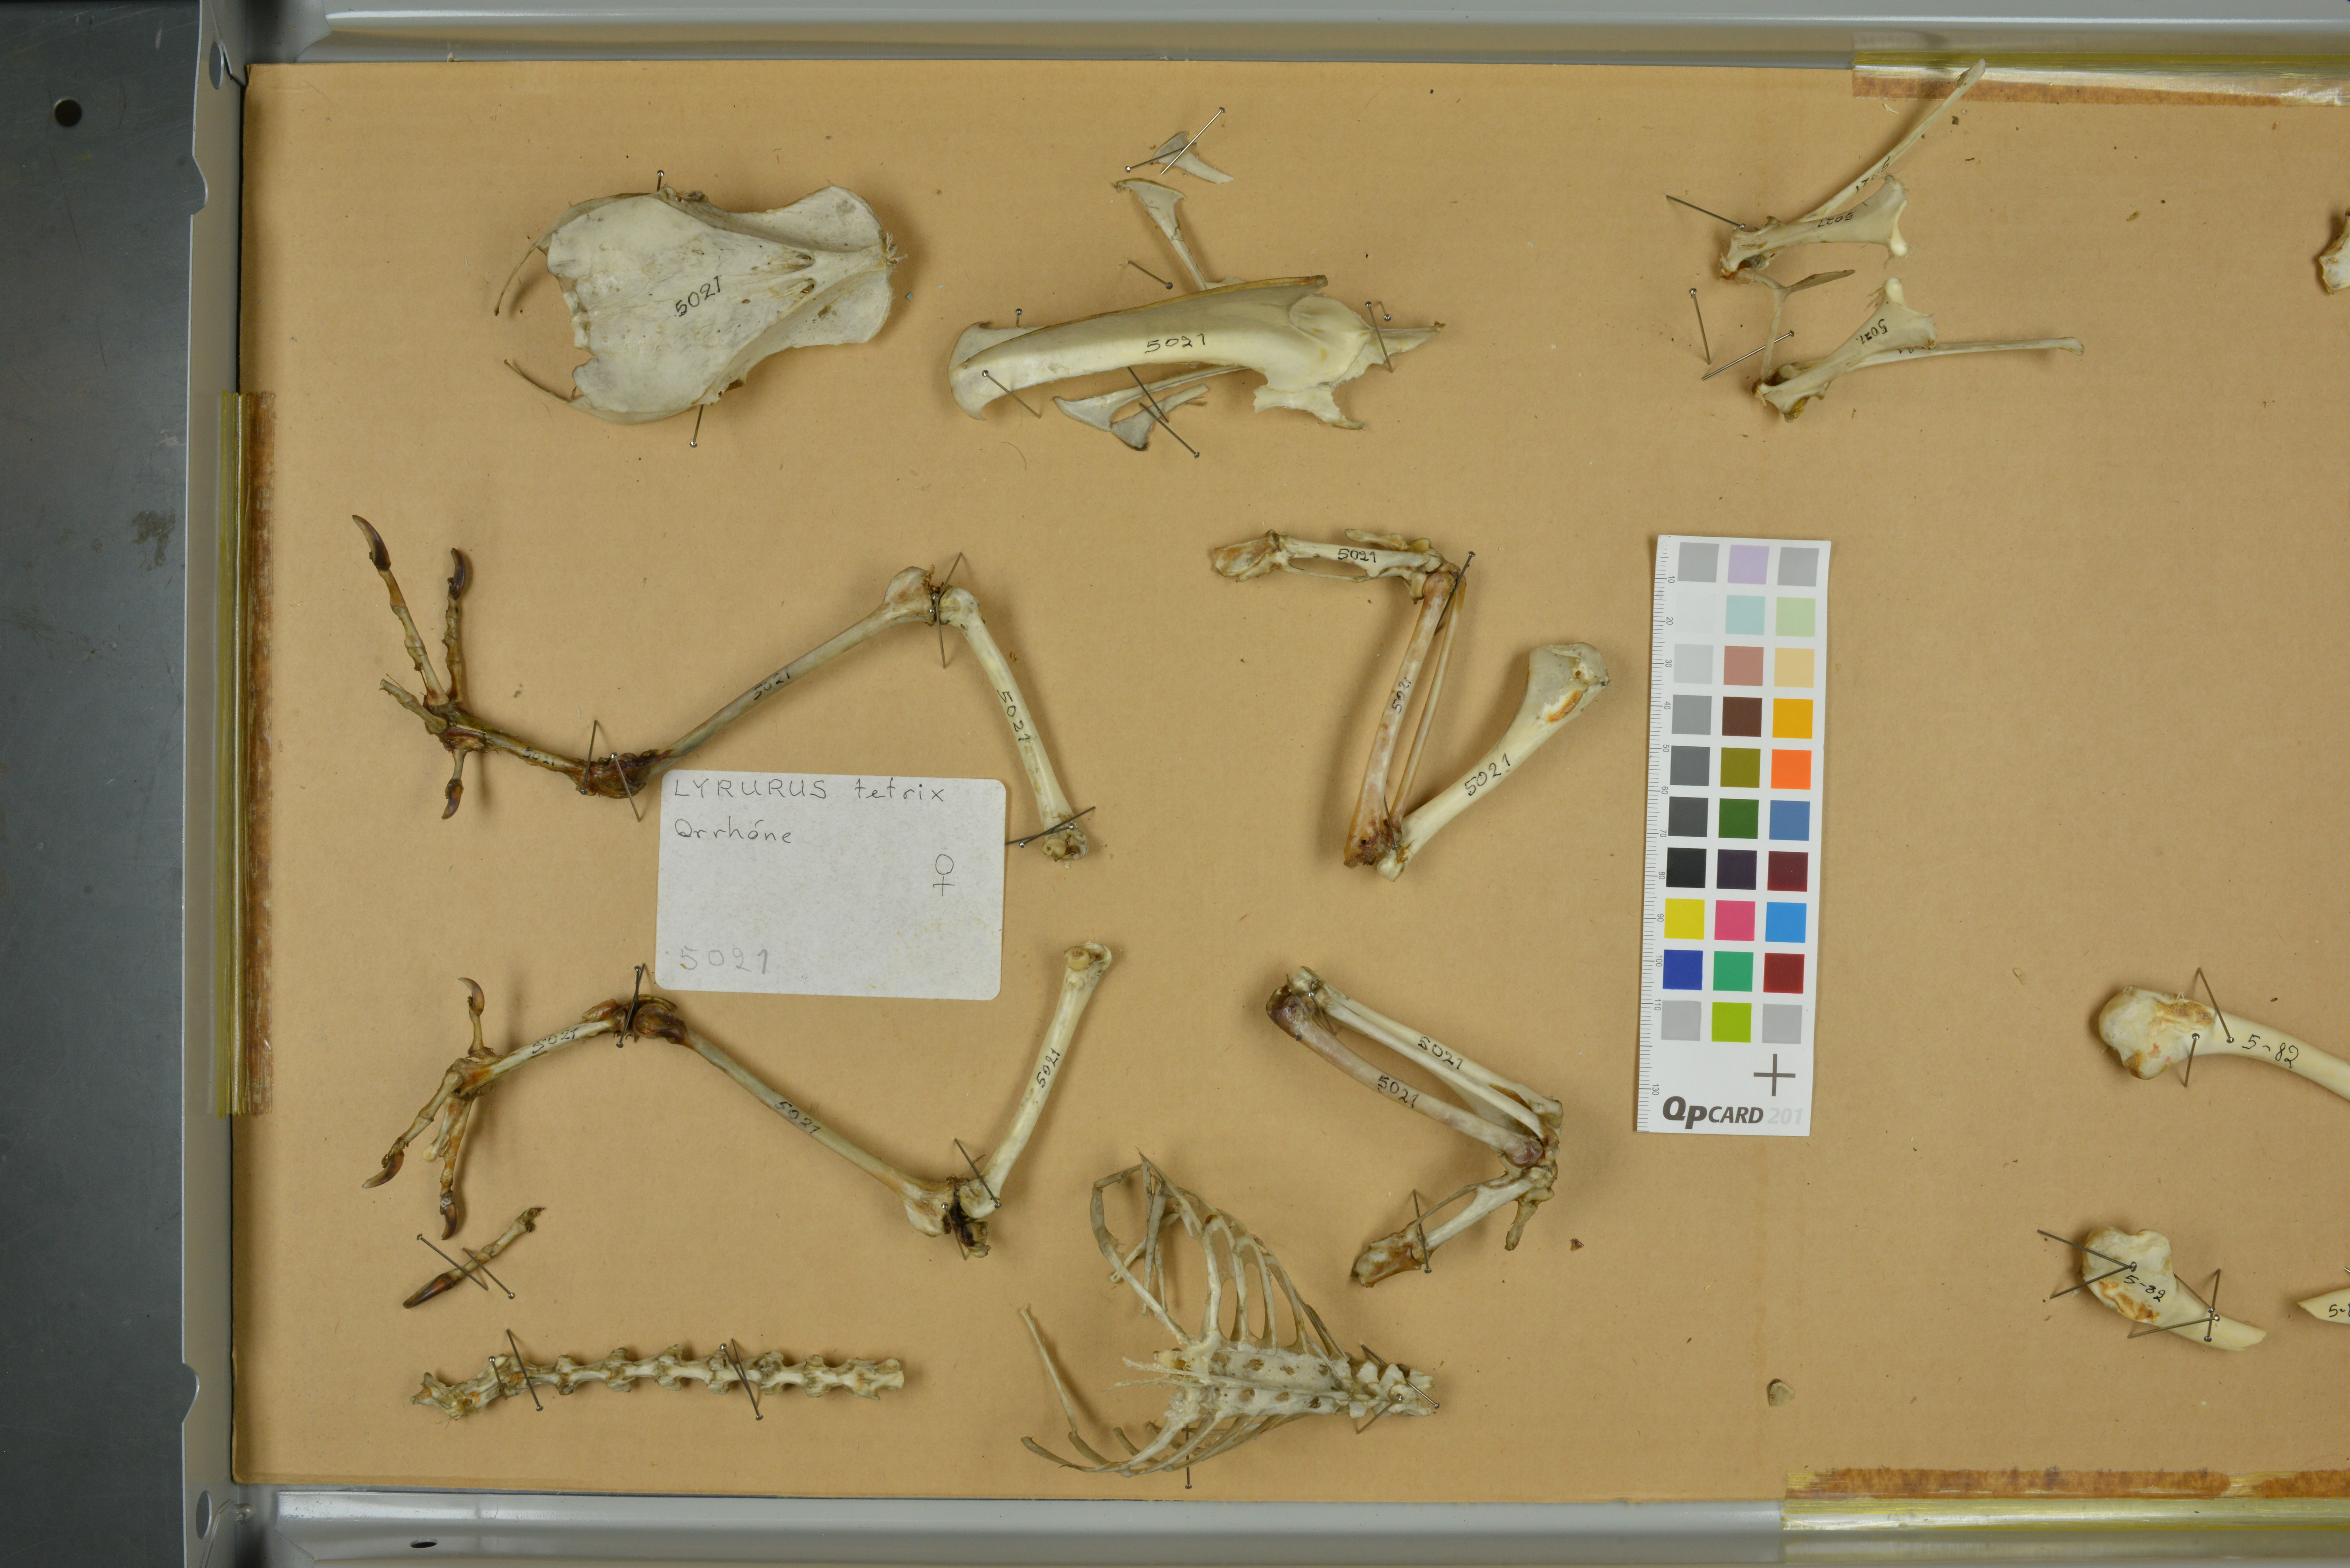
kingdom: Animalia
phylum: Chordata
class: Aves
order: Galliformes
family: Phasianidae
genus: Lyrurus
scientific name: Lyrurus tetrix
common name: Black grouse
